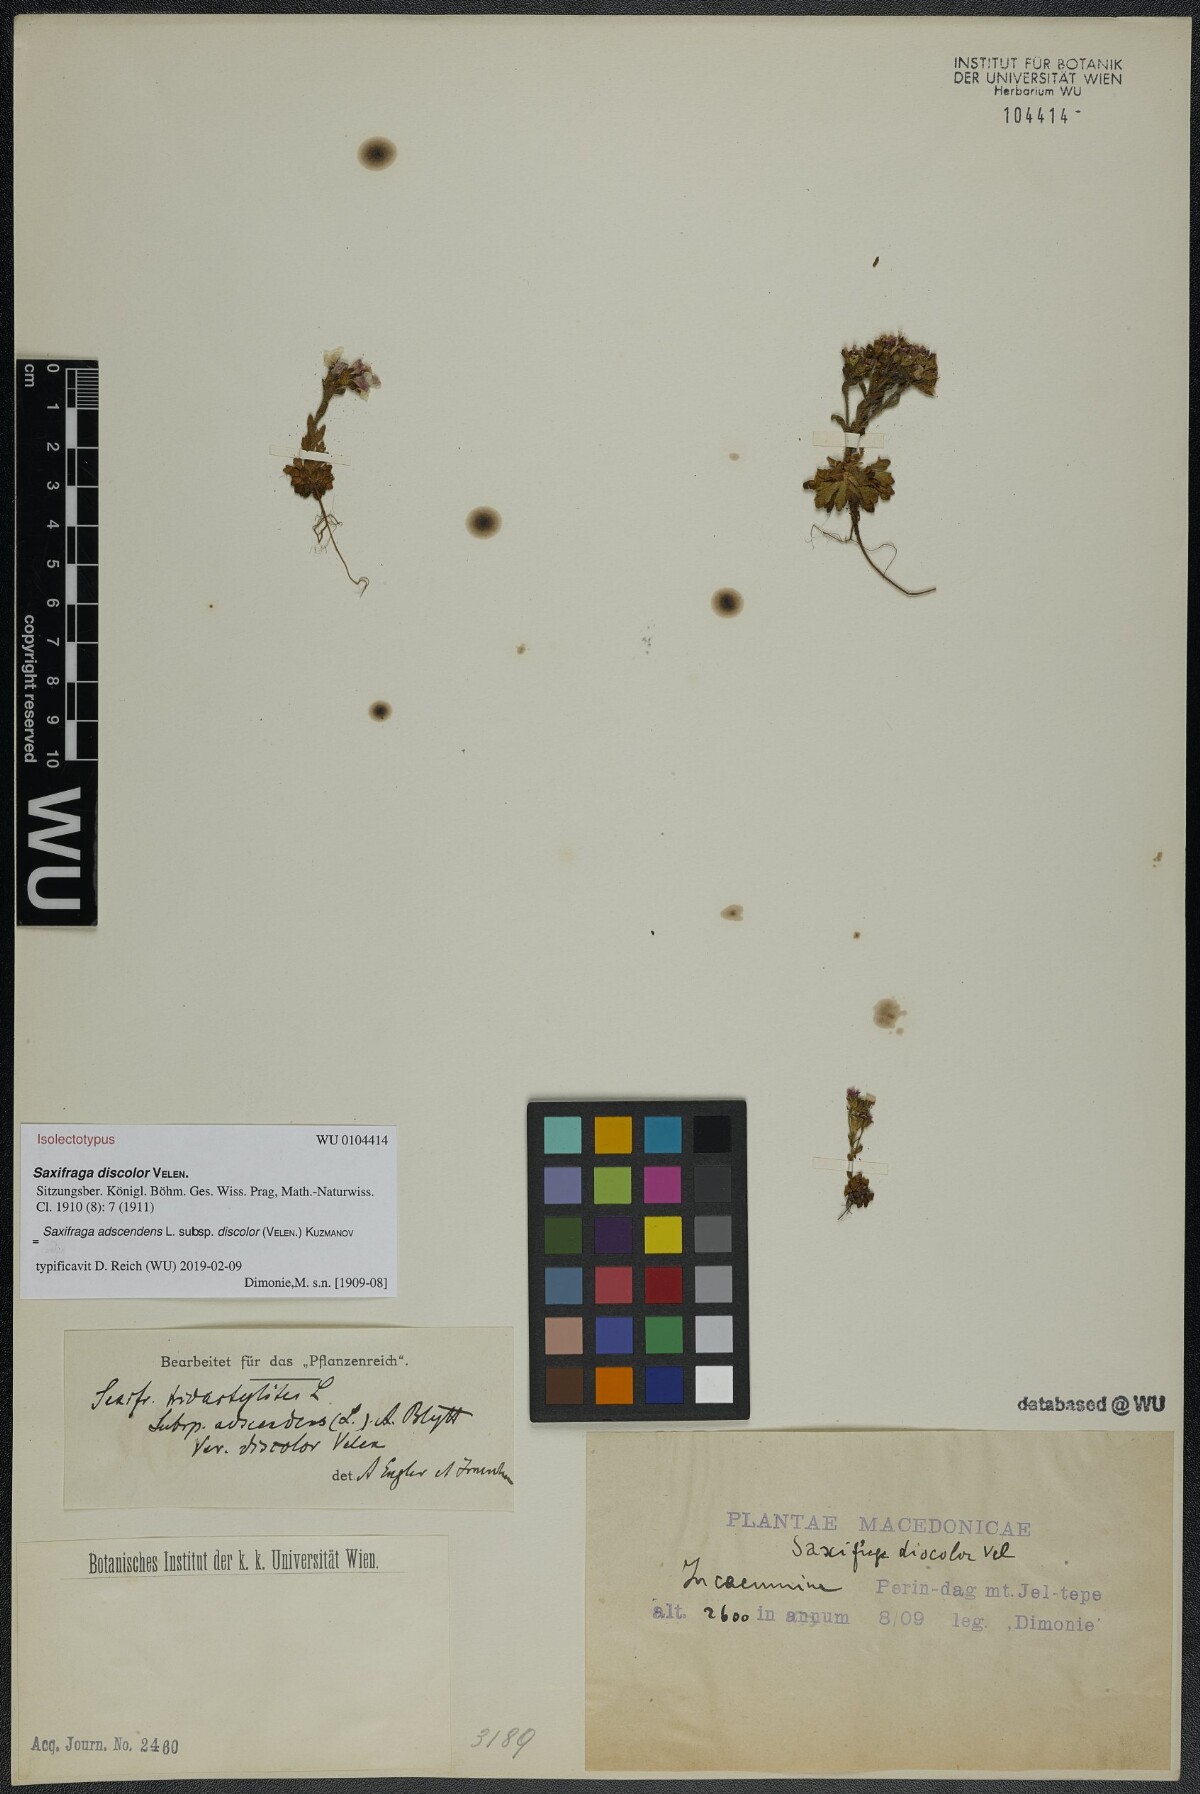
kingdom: Plantae
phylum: Tracheophyta
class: Magnoliopsida
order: Saxifragales
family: Saxifragaceae
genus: Saxifraga
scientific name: Saxifraga adscendens
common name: Ascending saxifrage
